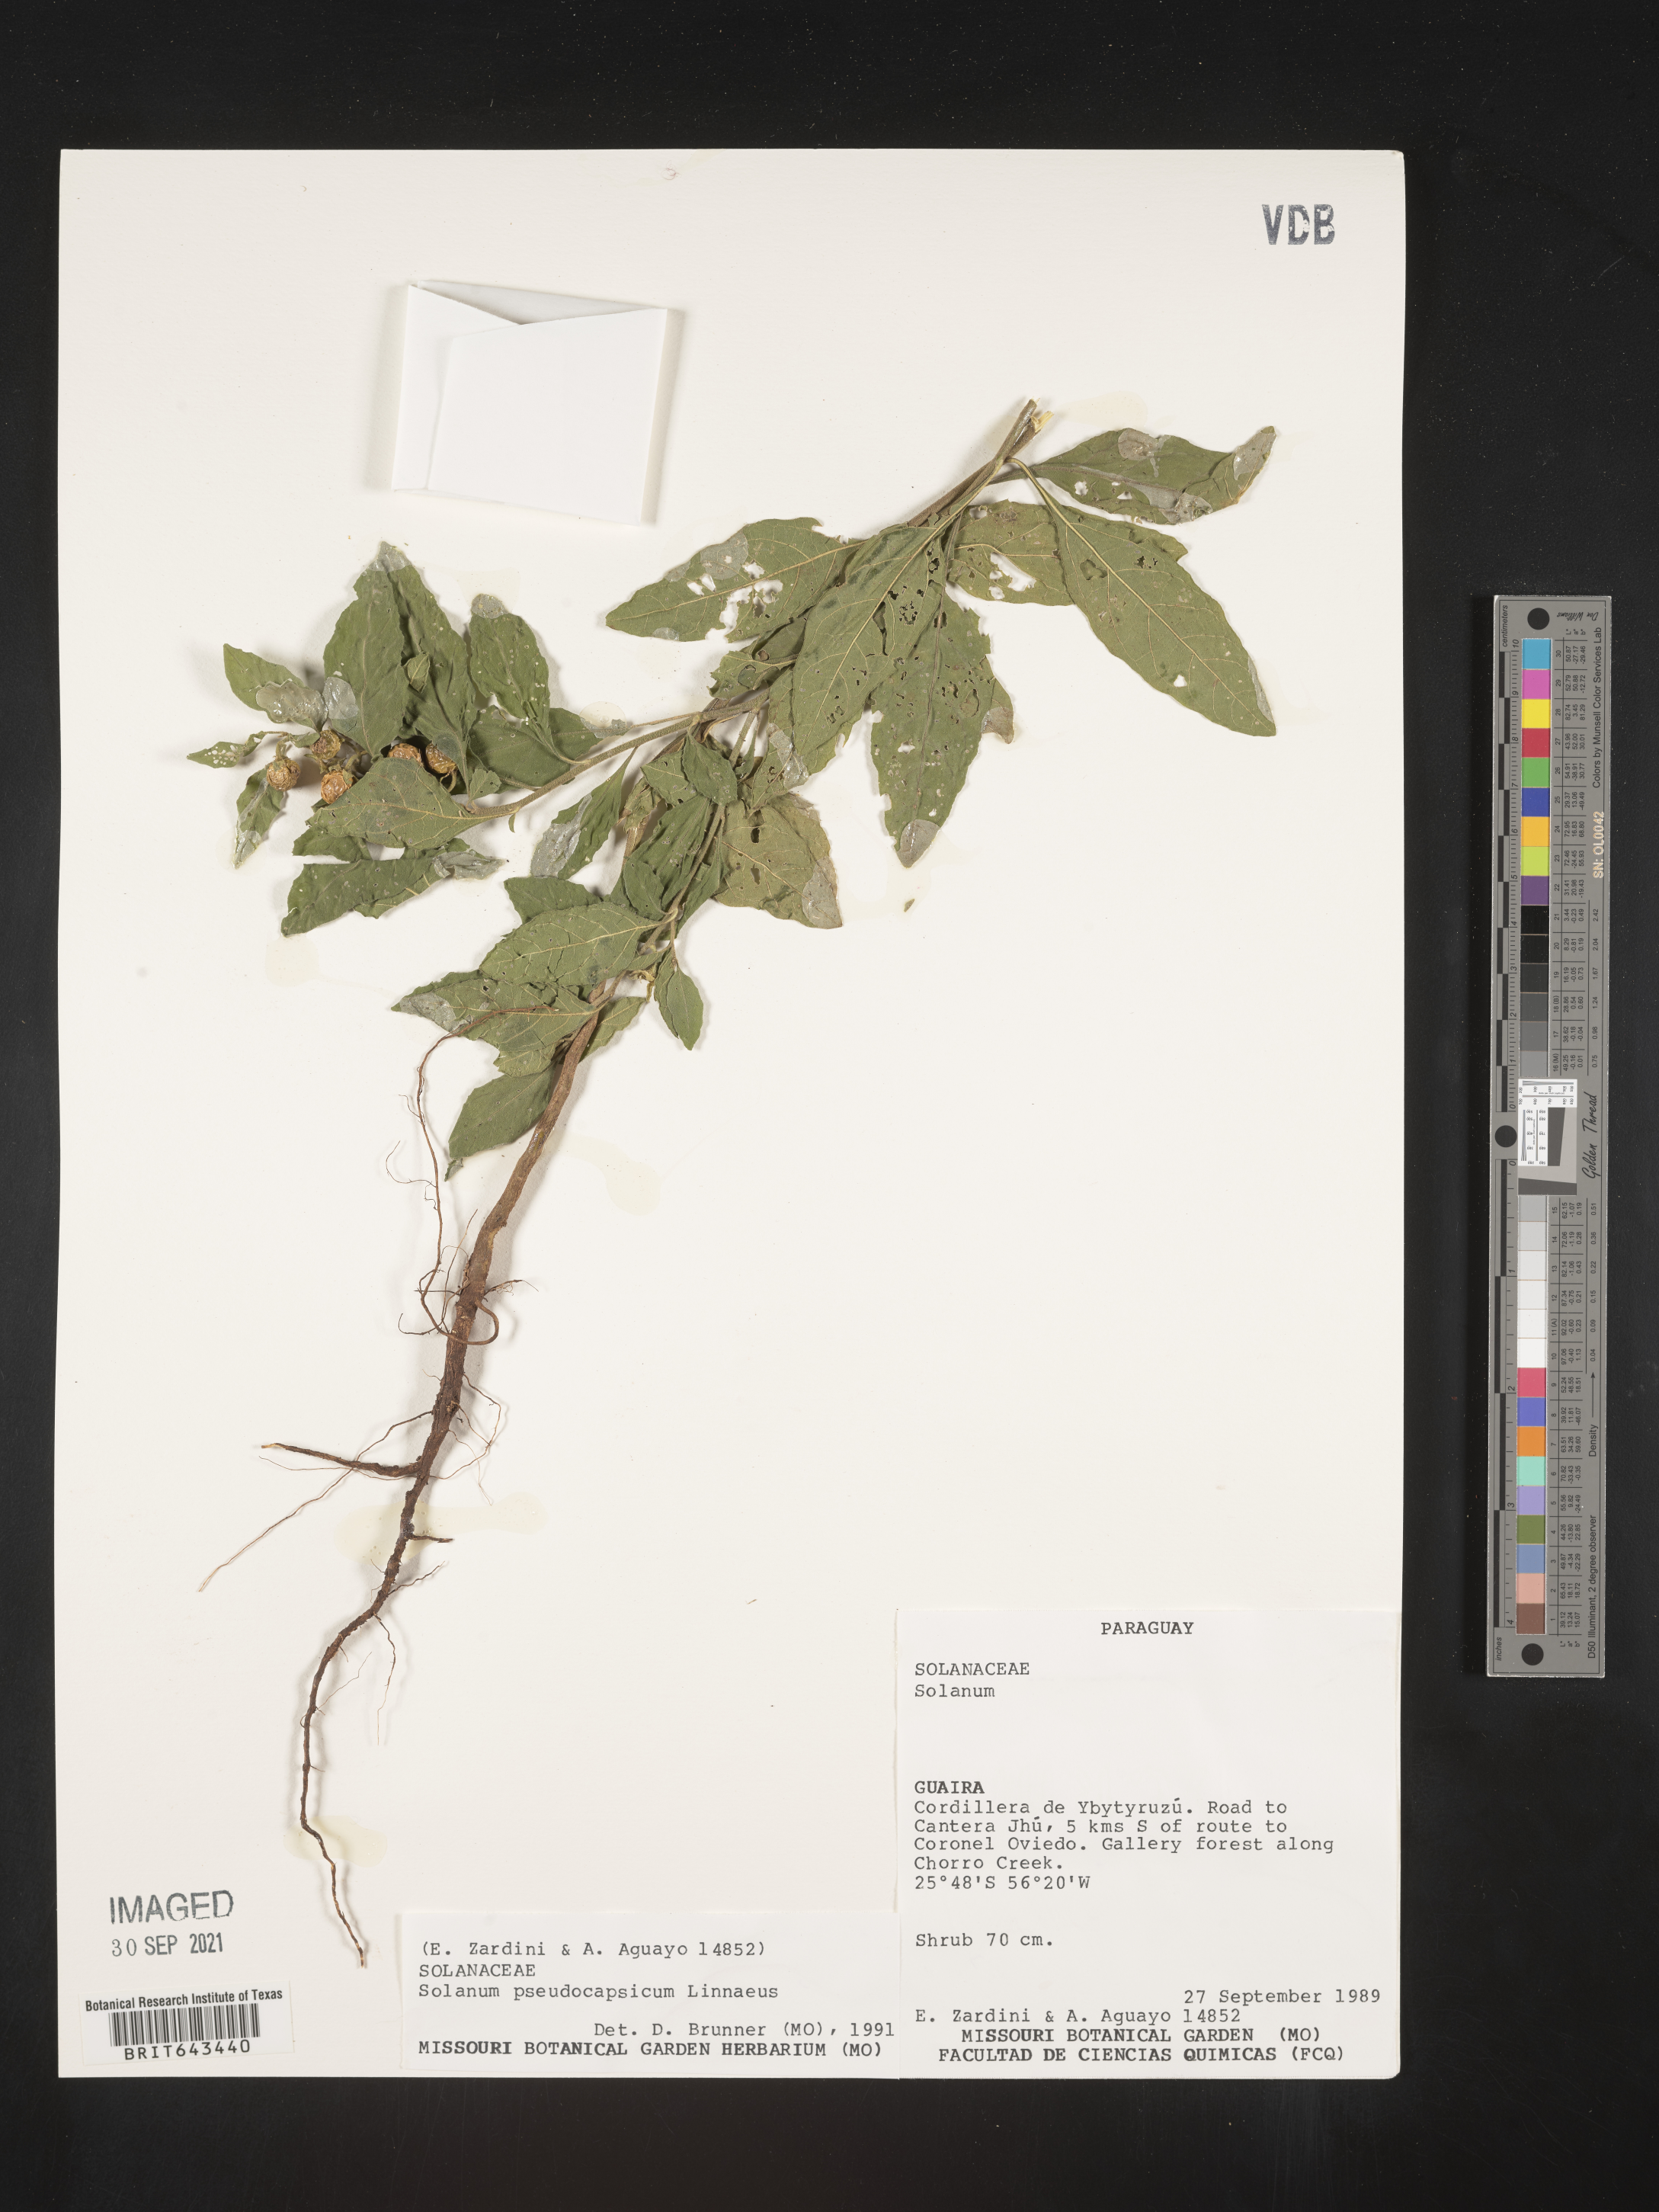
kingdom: Plantae
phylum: Tracheophyta
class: Magnoliopsida
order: Solanales
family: Solanaceae
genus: Solanum
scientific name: Solanum
